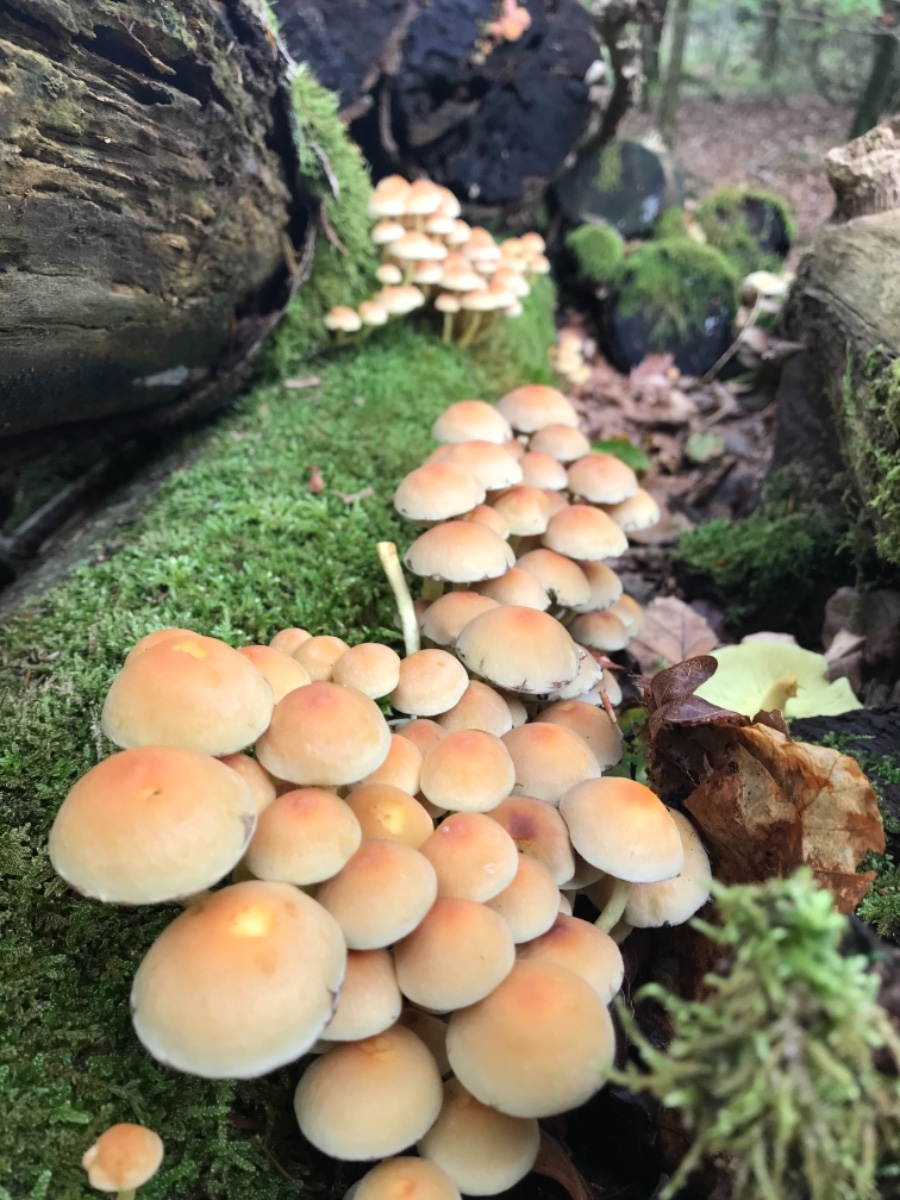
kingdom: Fungi
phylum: Basidiomycota
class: Agaricomycetes
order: Agaricales
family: Strophariaceae
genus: Hypholoma
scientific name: Hypholoma fasciculare
